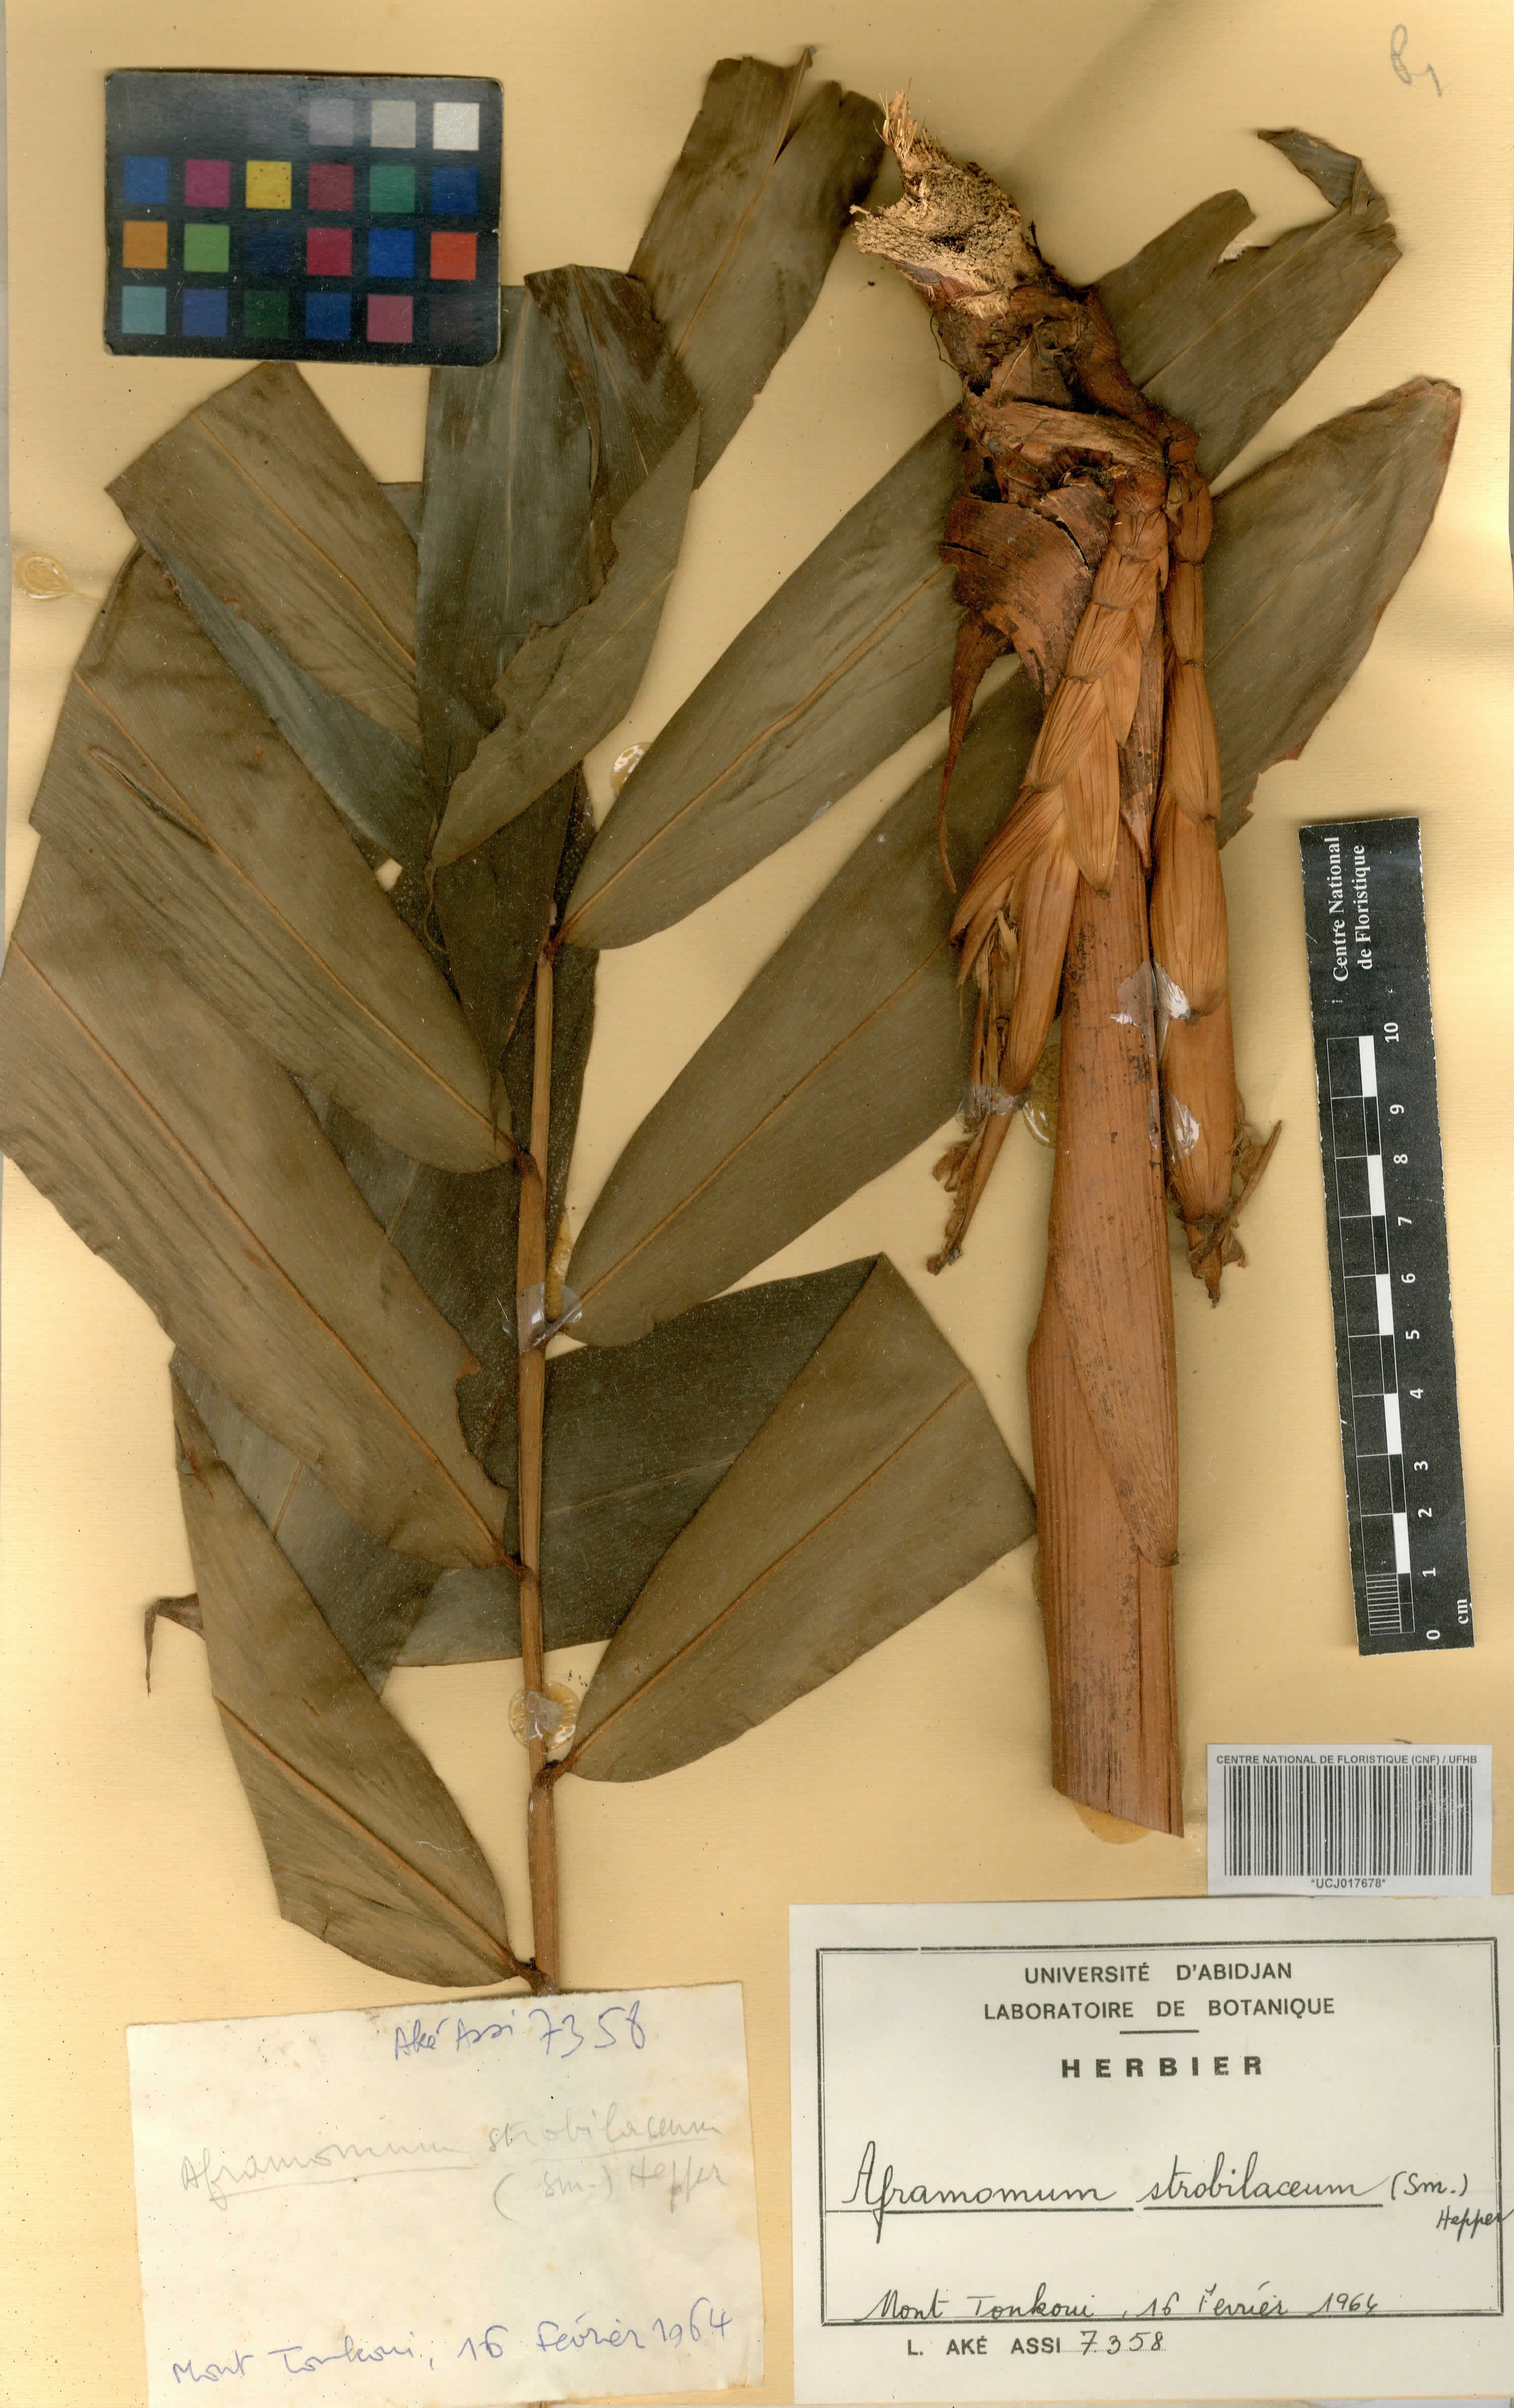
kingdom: Plantae
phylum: Tracheophyta
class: Liliopsida
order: Zingiberales
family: Zingiberaceae
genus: Aframomum
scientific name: Aframomum strobilaceum
